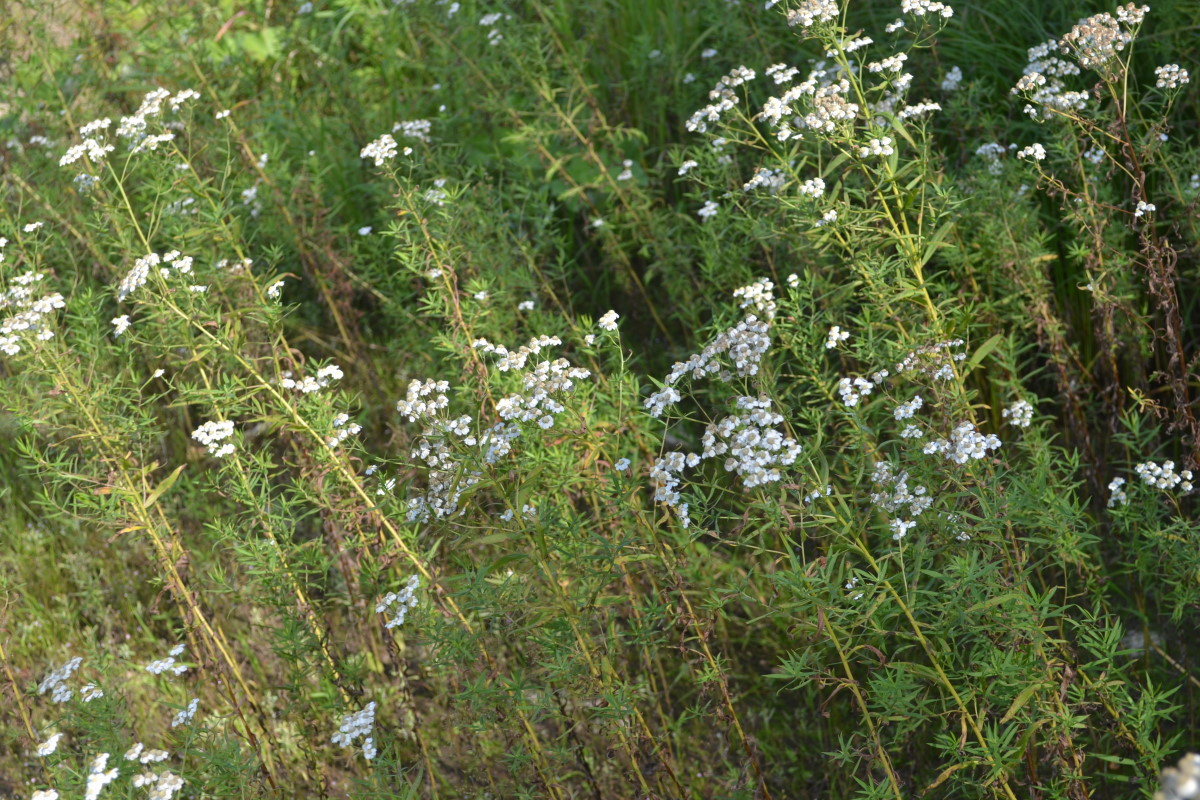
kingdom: Plantae
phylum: Tracheophyta
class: Magnoliopsida
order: Asterales
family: Asteraceae
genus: Achillea
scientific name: Achillea ptarmica
